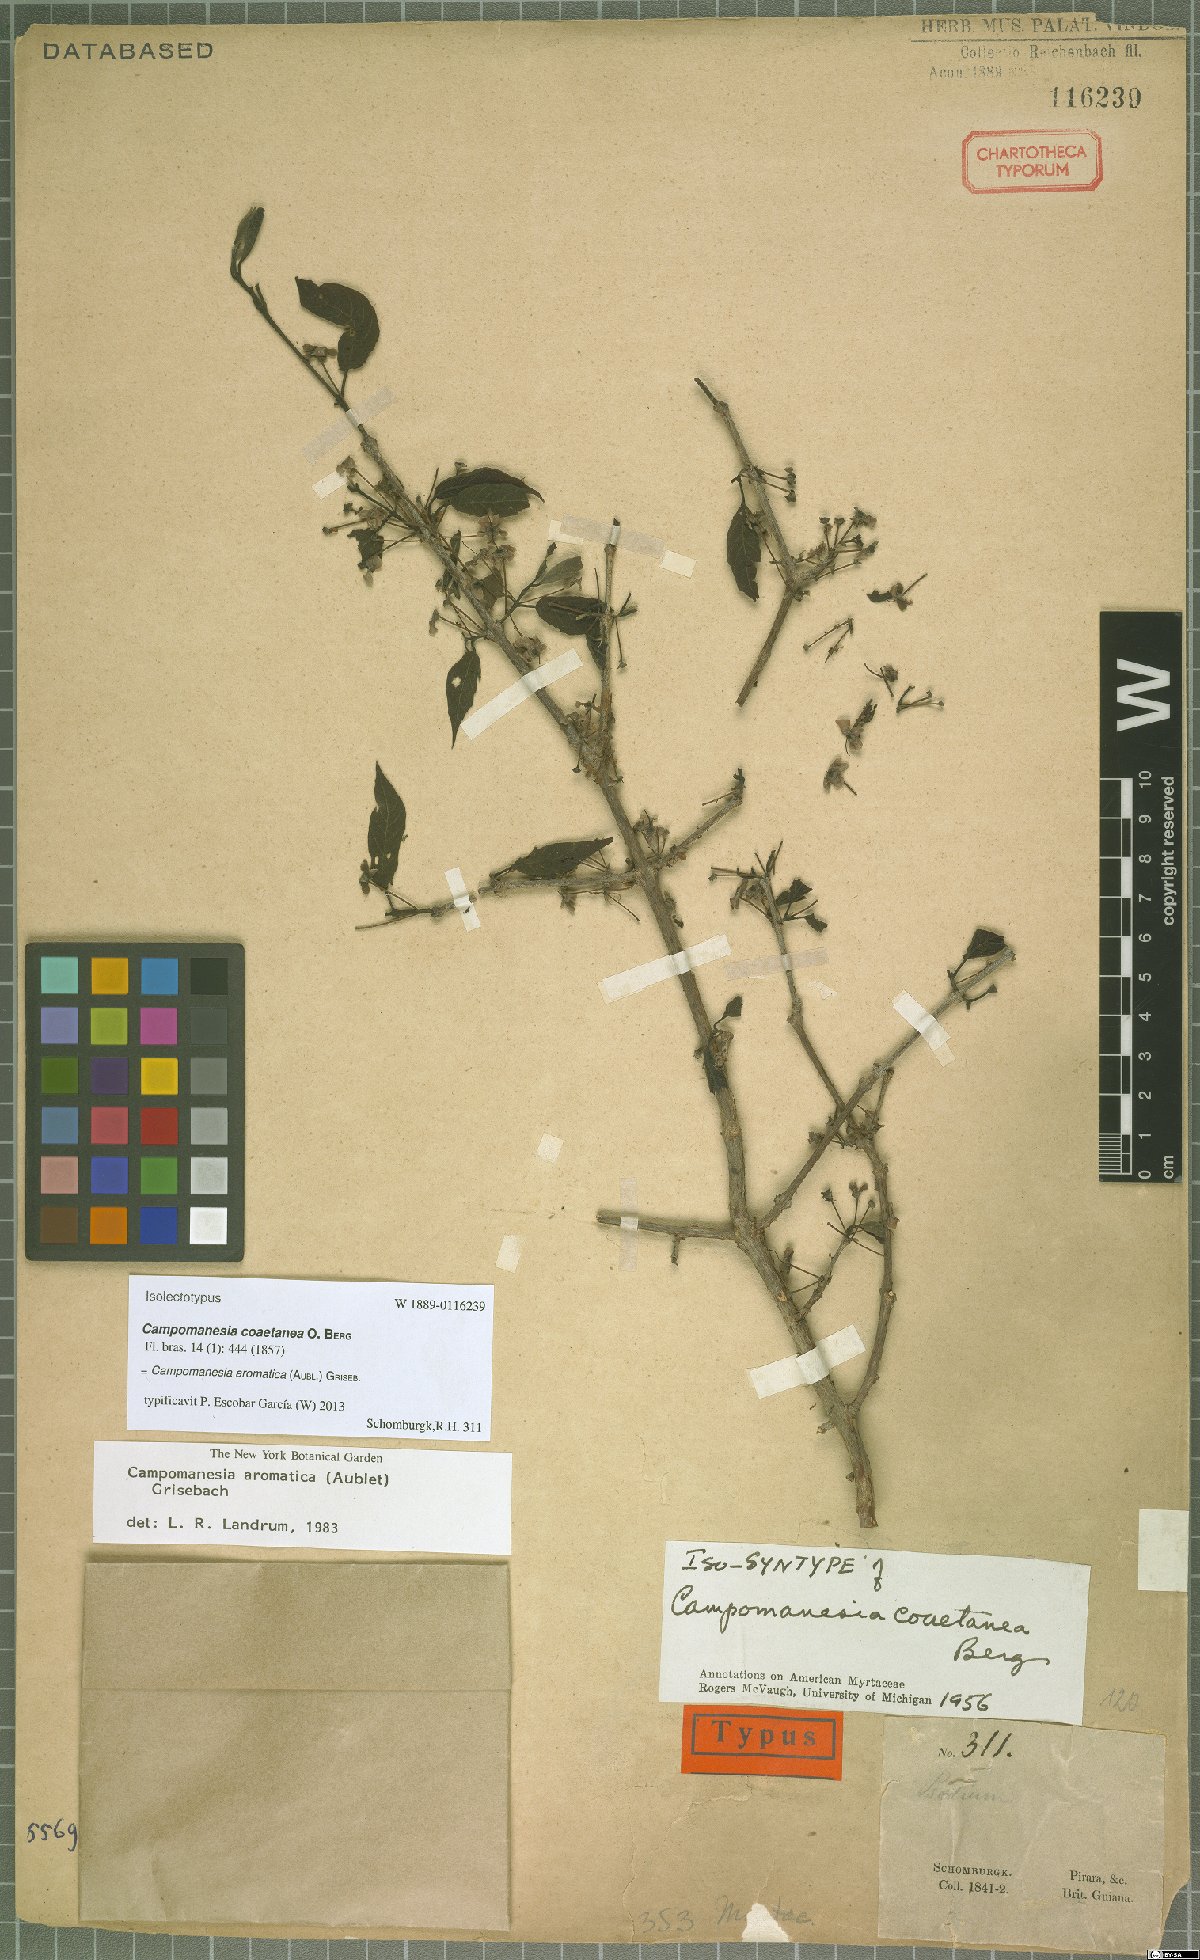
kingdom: Plantae
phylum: Tracheophyta
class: Magnoliopsida
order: Myrtales
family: Myrtaceae
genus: Campomanesia
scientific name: Campomanesia aromatica
